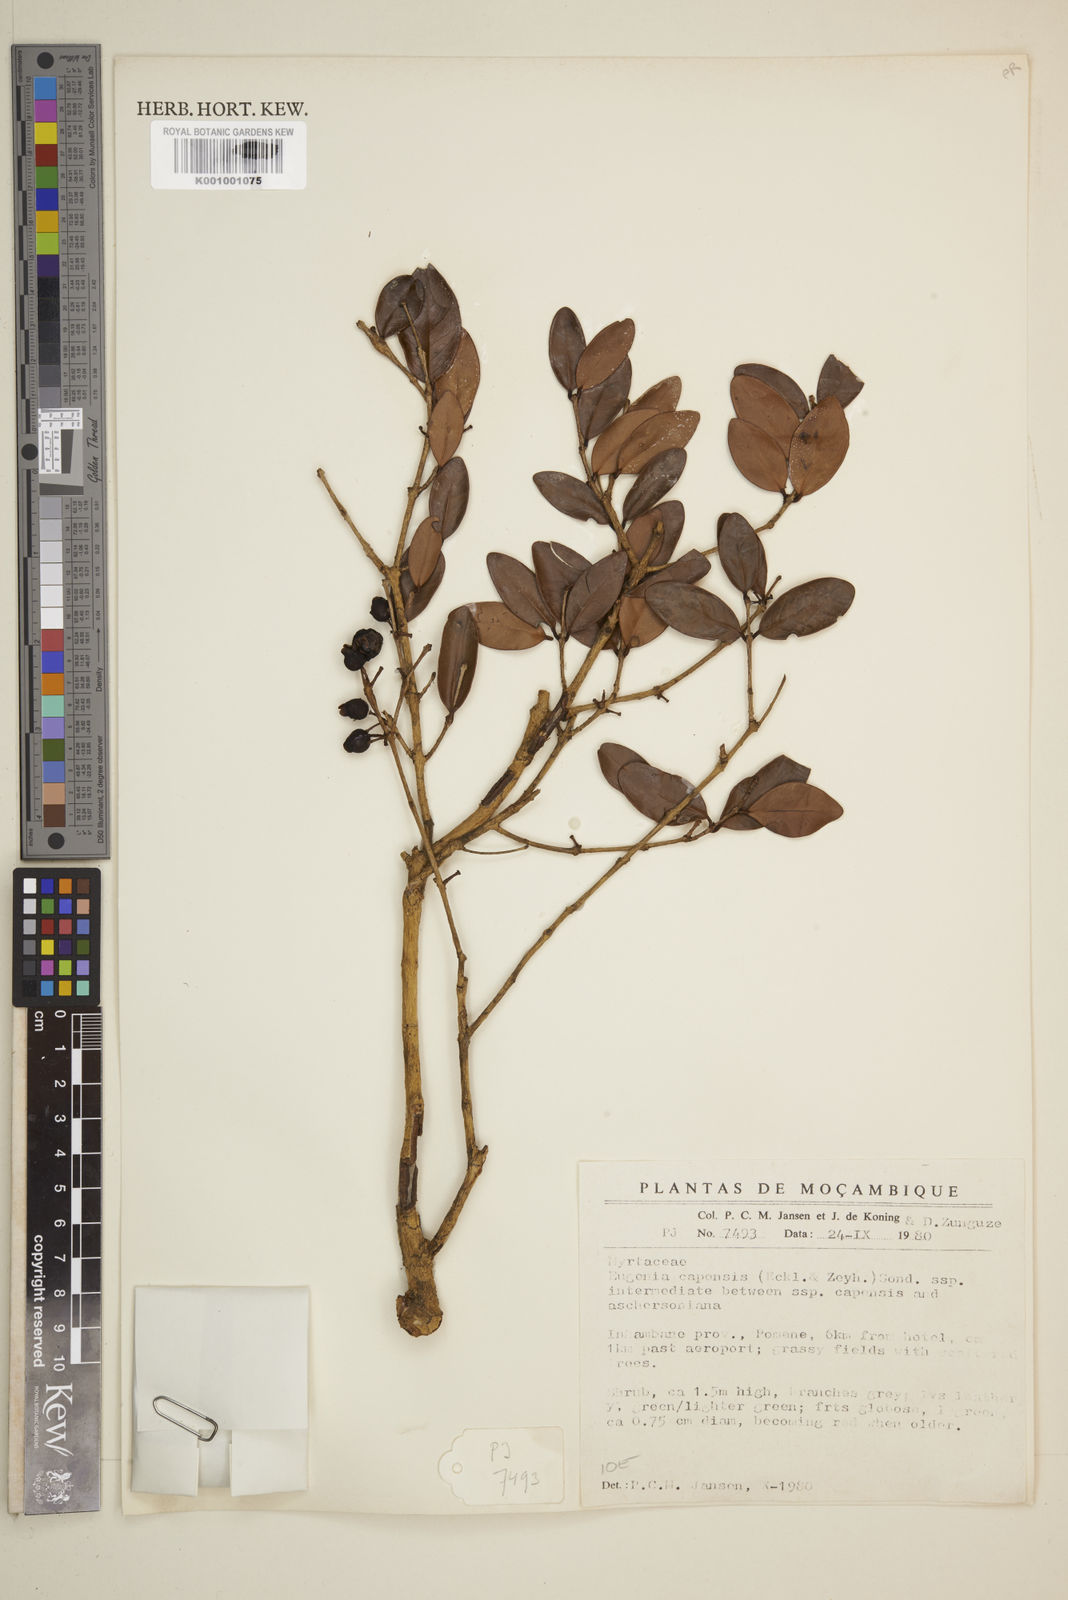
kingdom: Plantae
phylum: Tracheophyta
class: Magnoliopsida
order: Myrtales
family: Myrtaceae
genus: Eugenia
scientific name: Eugenia capensis
